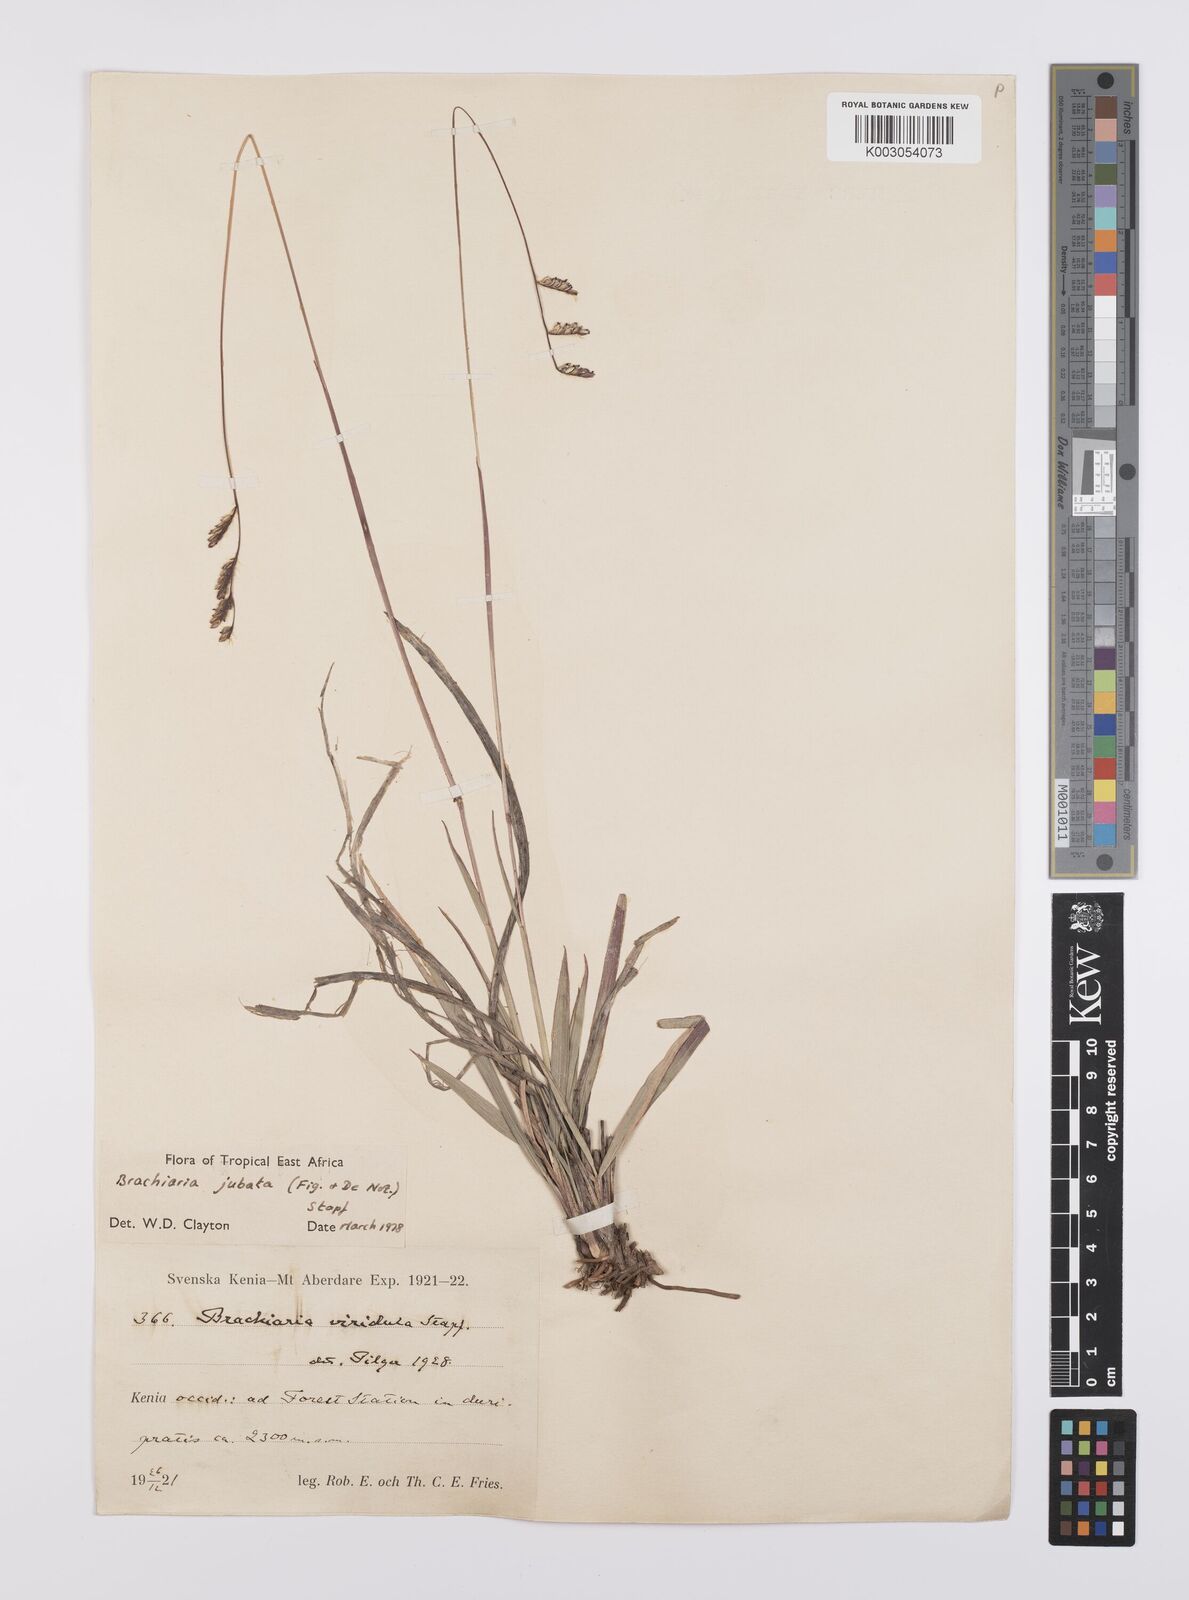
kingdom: Plantae
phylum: Tracheophyta
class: Liliopsida
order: Poales
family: Poaceae
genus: Urochloa
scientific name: Urochloa jubata
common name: Buffalograss
